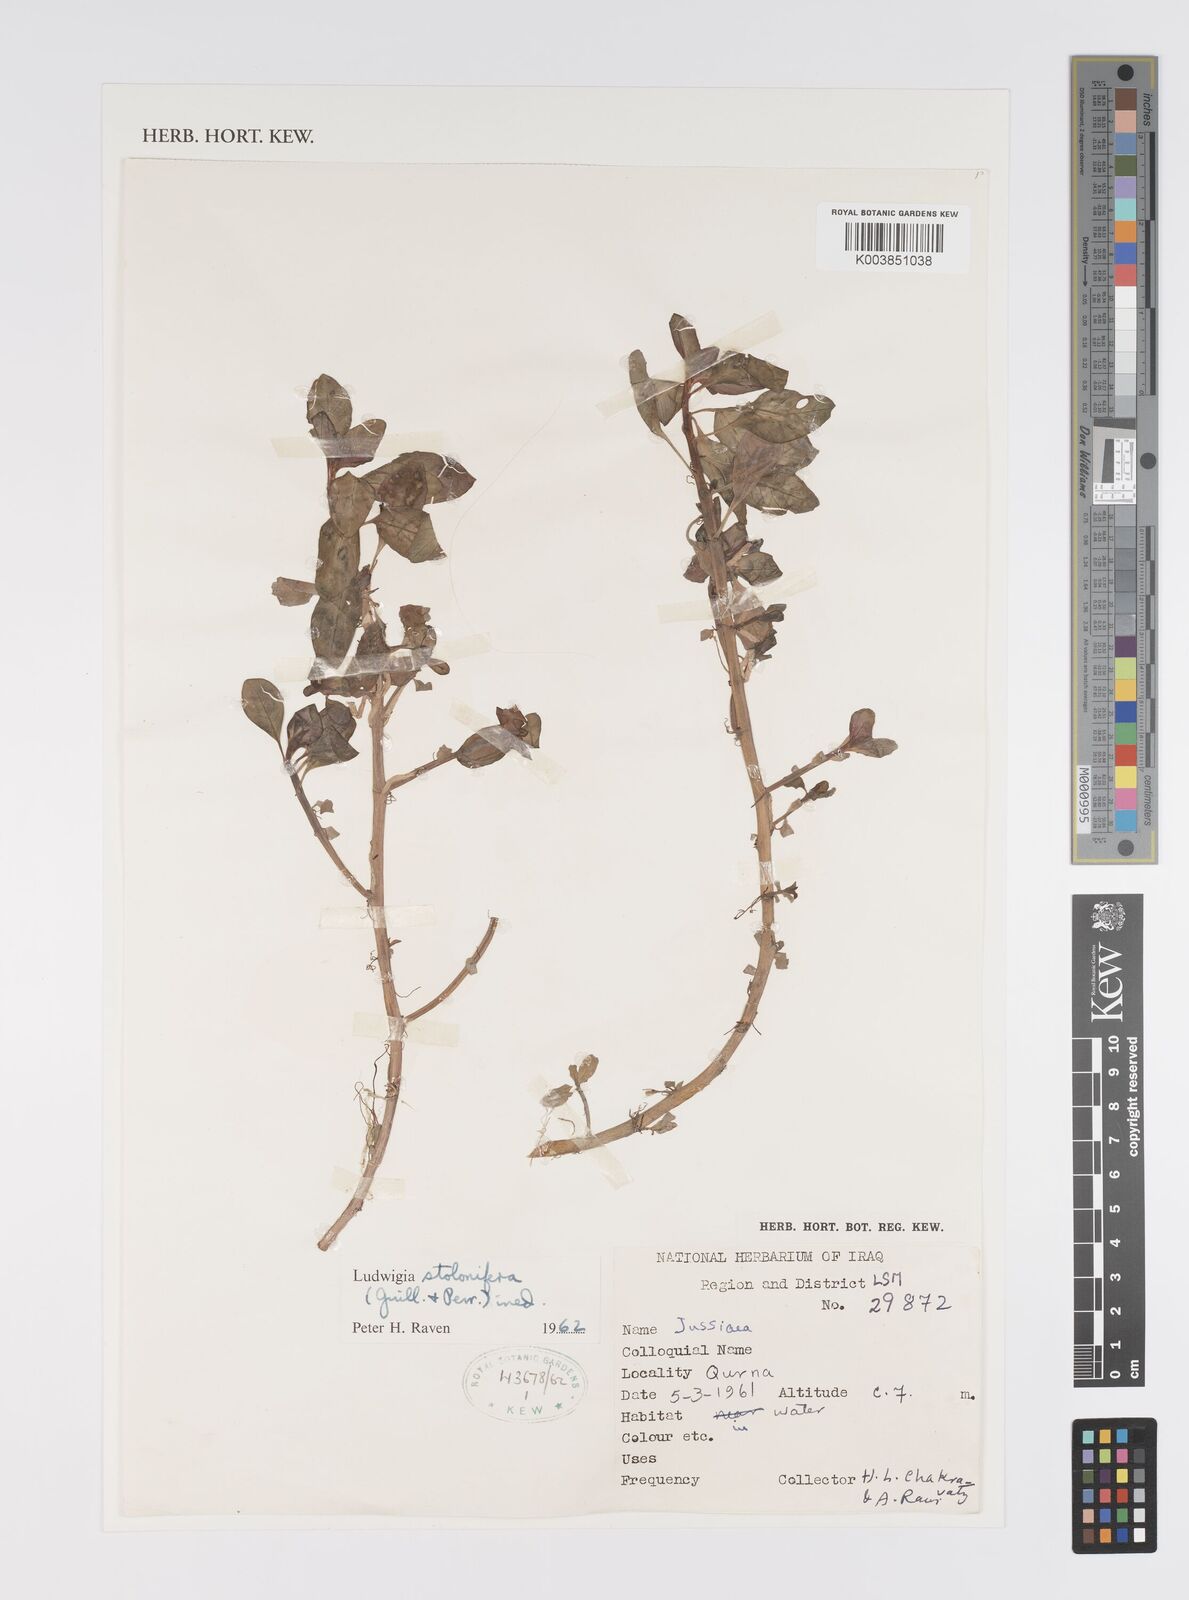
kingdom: Plantae
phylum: Tracheophyta
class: Magnoliopsida
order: Myrtales
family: Onagraceae
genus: Ludwigia
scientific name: Ludwigia adscendens
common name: Creeping water primrose
